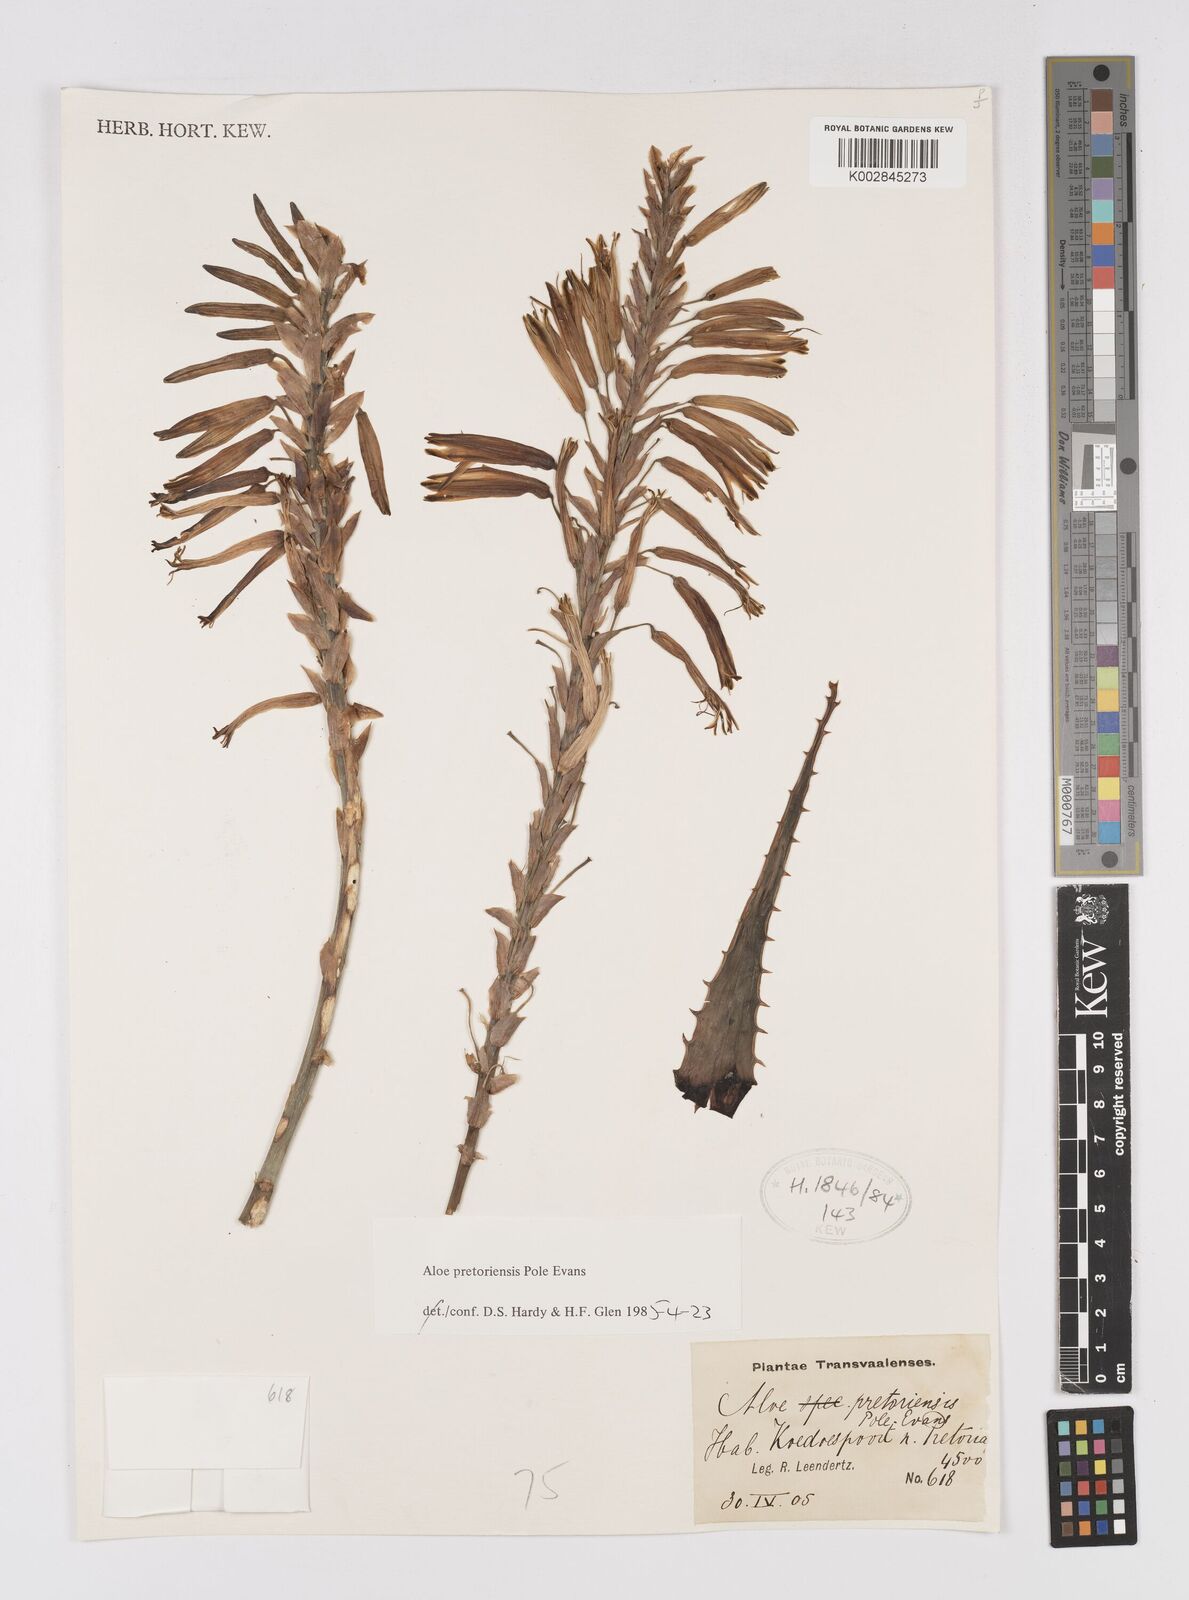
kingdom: Plantae
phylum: Tracheophyta
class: Liliopsida
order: Asparagales
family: Asphodelaceae
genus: Aloe
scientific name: Aloe pretoriensis
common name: Pretoria aloe
